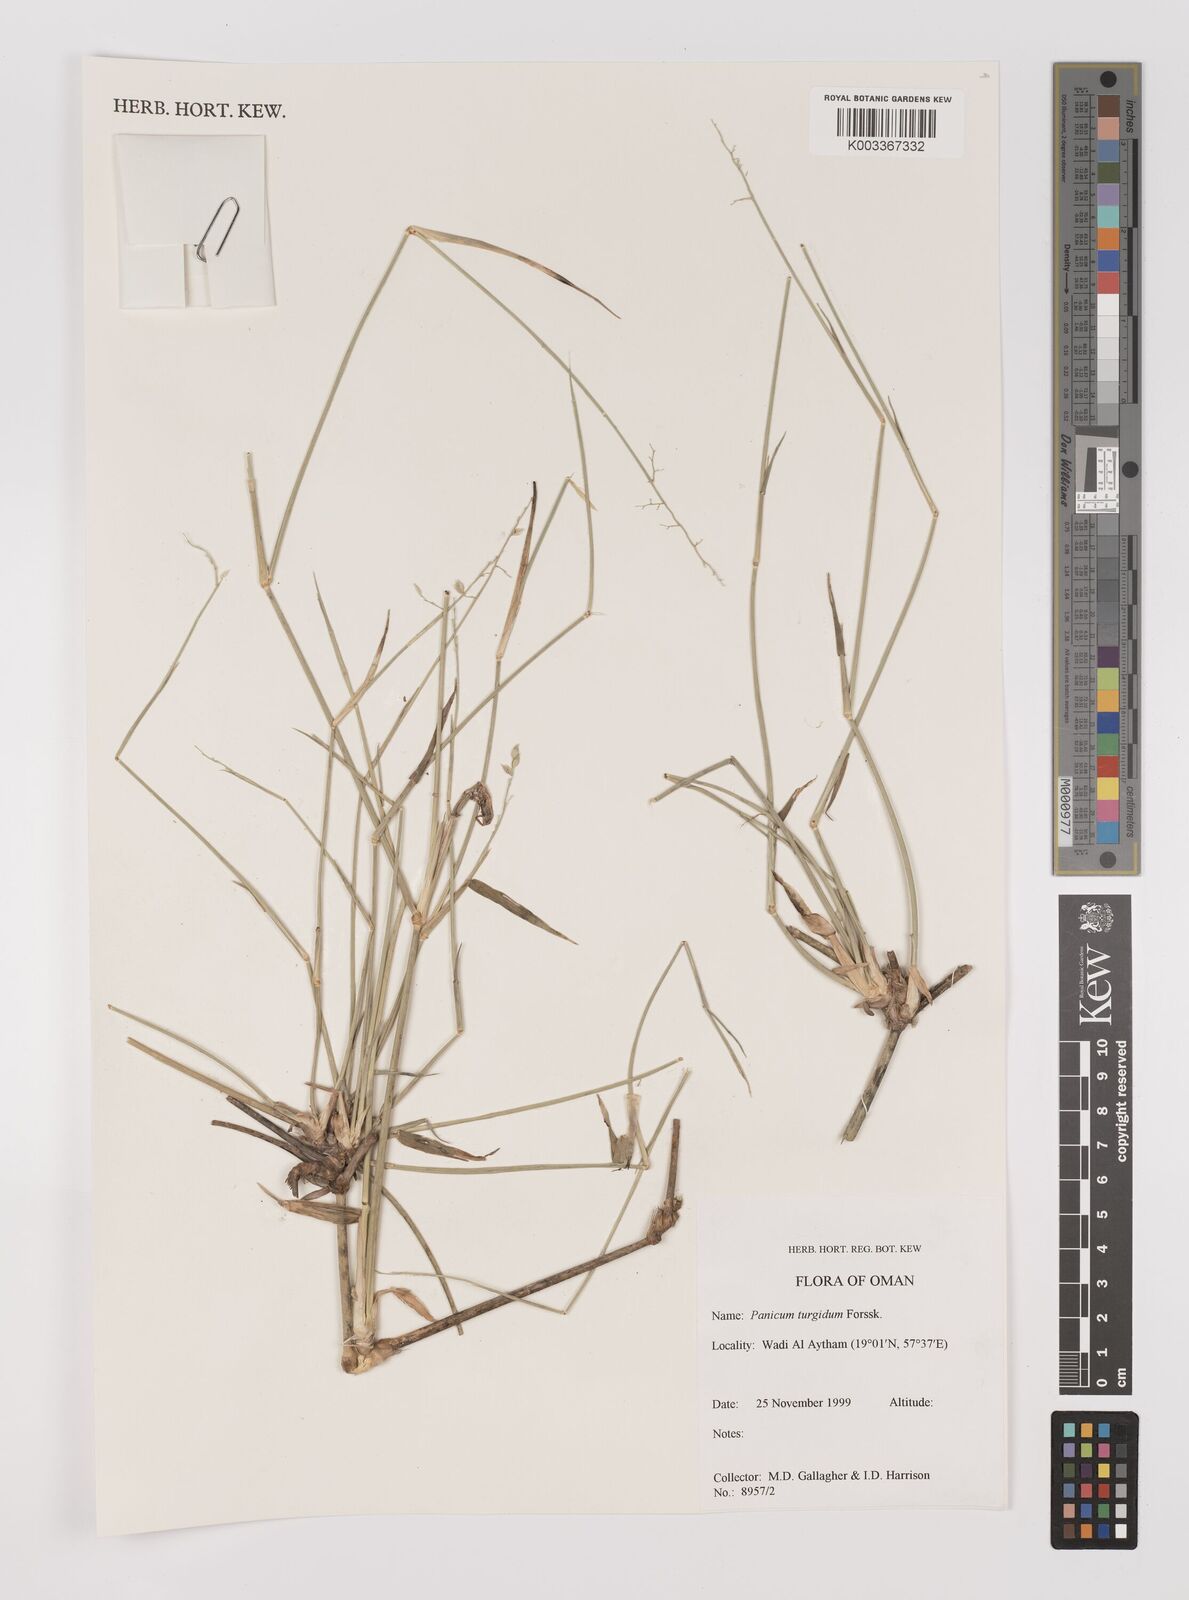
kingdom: Plantae
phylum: Tracheophyta
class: Liliopsida
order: Poales
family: Poaceae
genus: Panicum
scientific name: Panicum turgidum
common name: Desert grass
